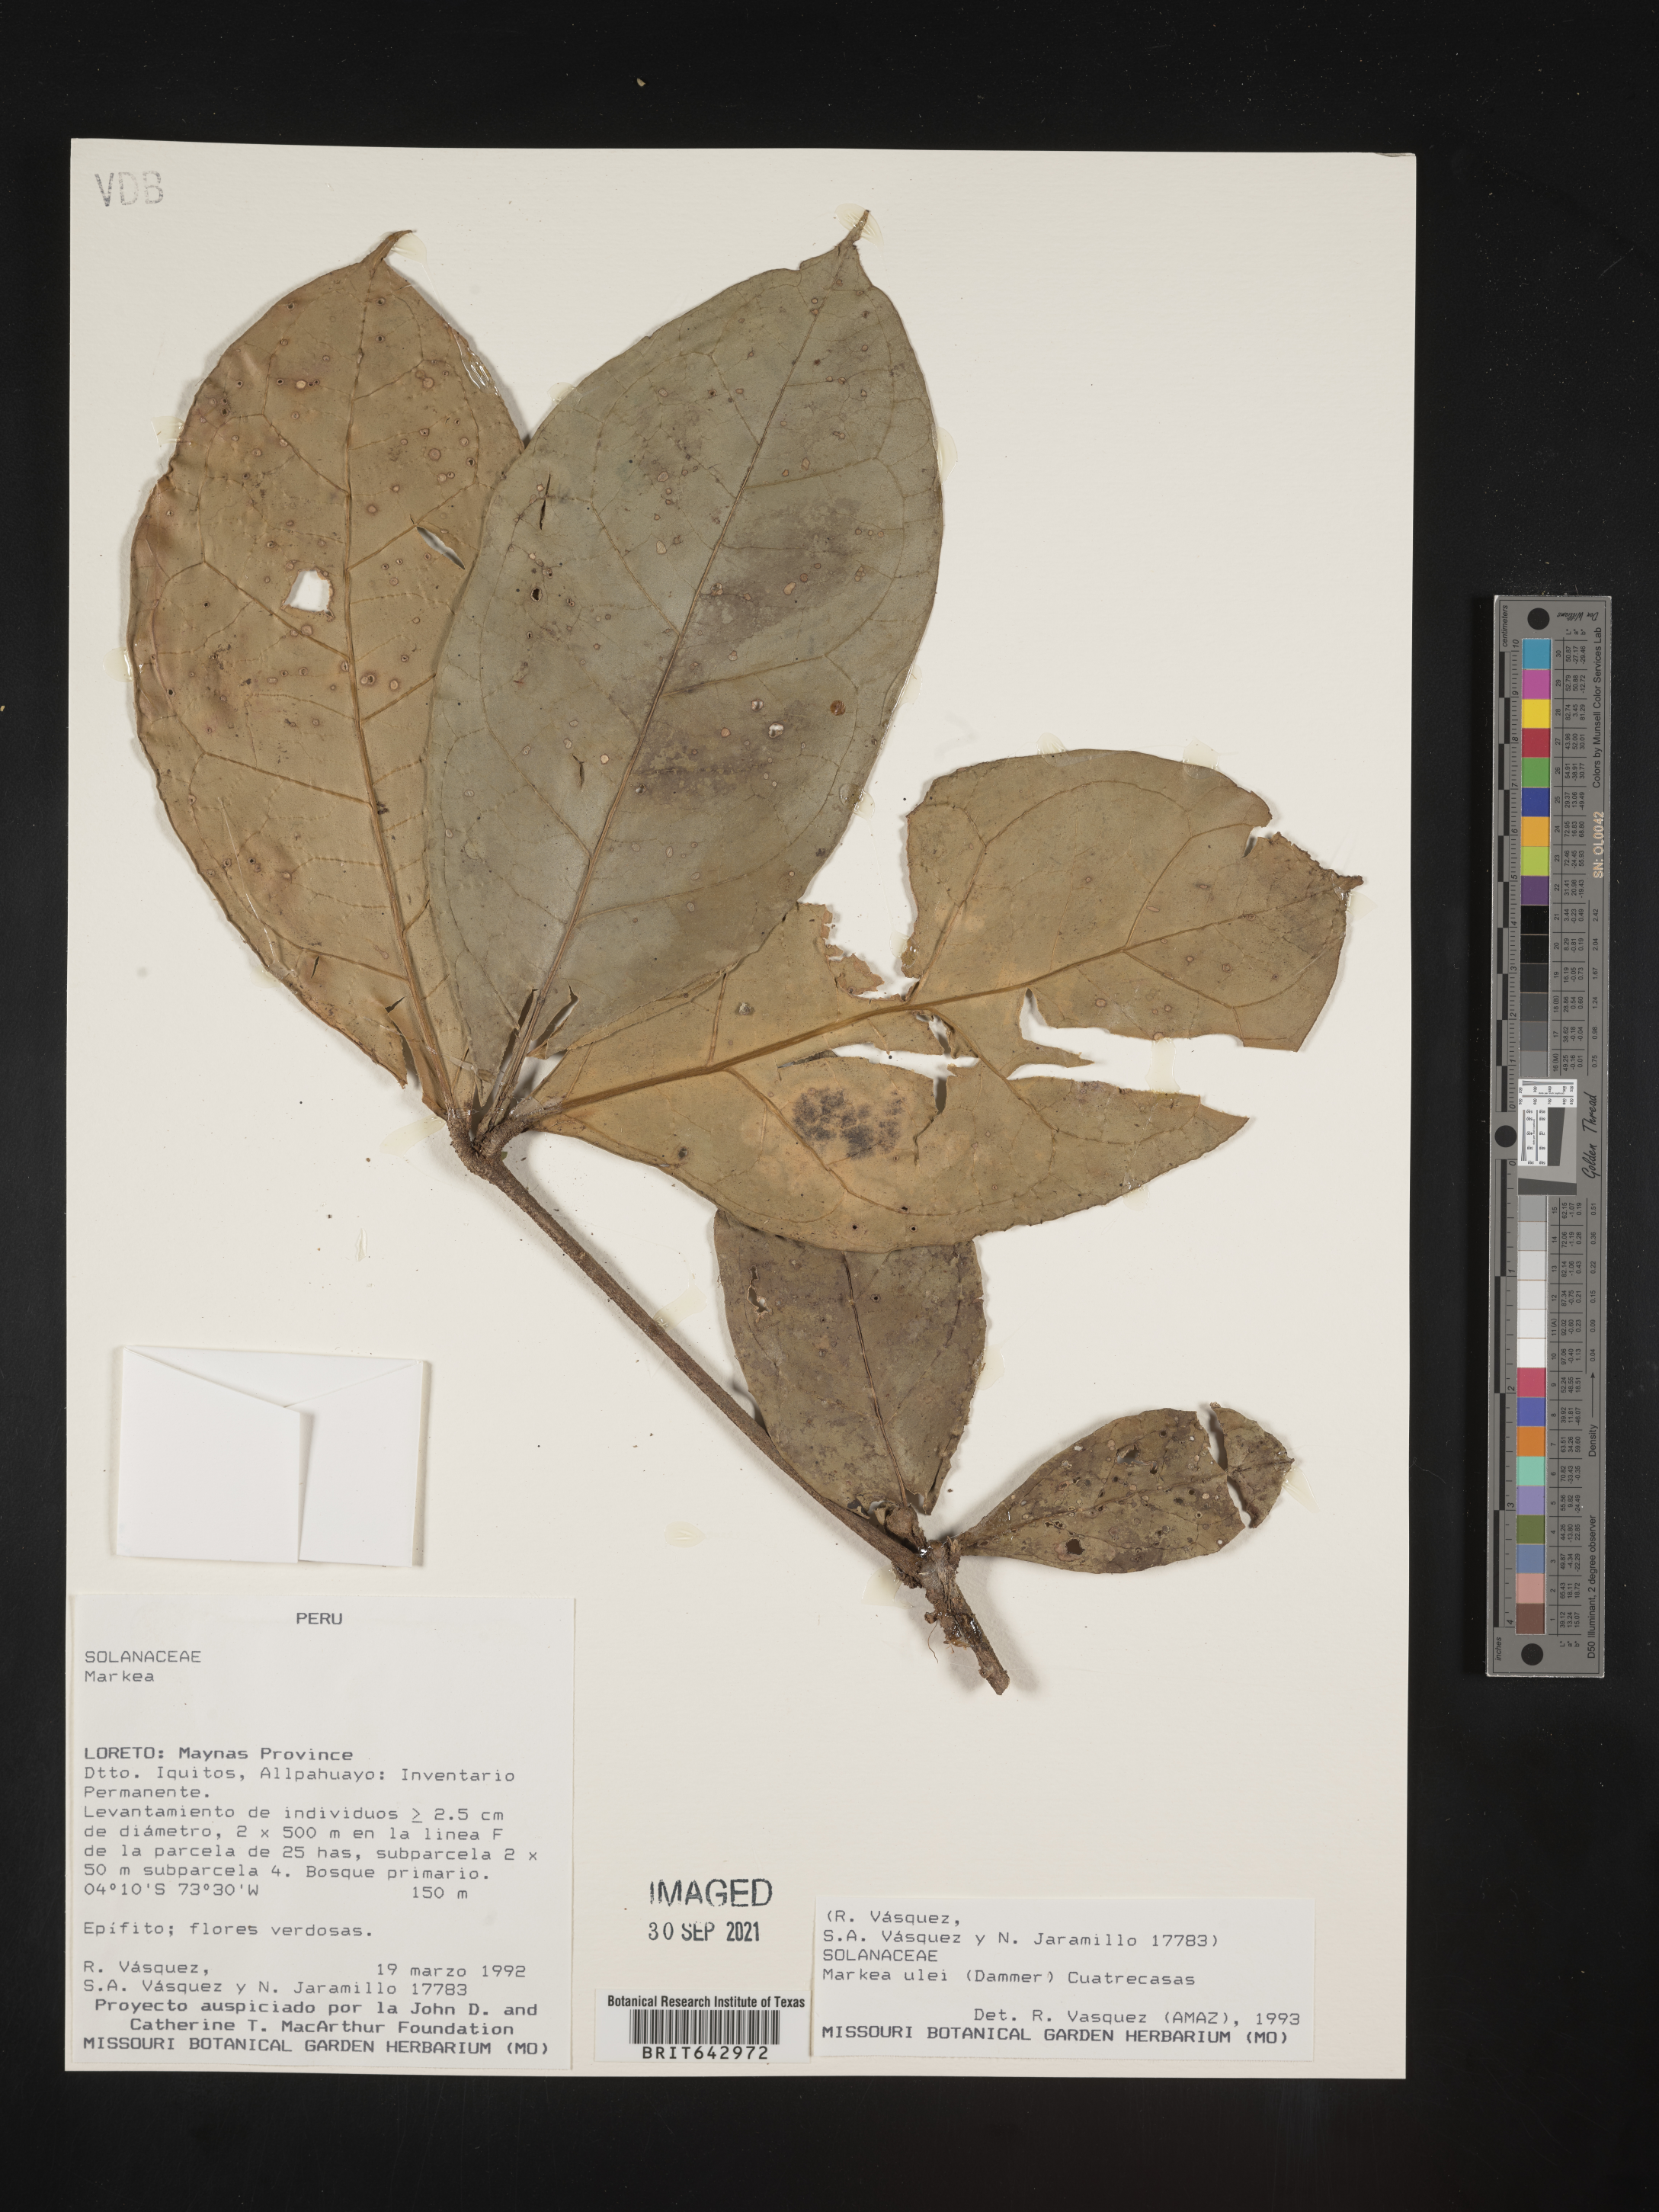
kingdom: Plantae
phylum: Tracheophyta
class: Magnoliopsida
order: Solanales
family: Solanaceae
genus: Markea
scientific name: Markea
